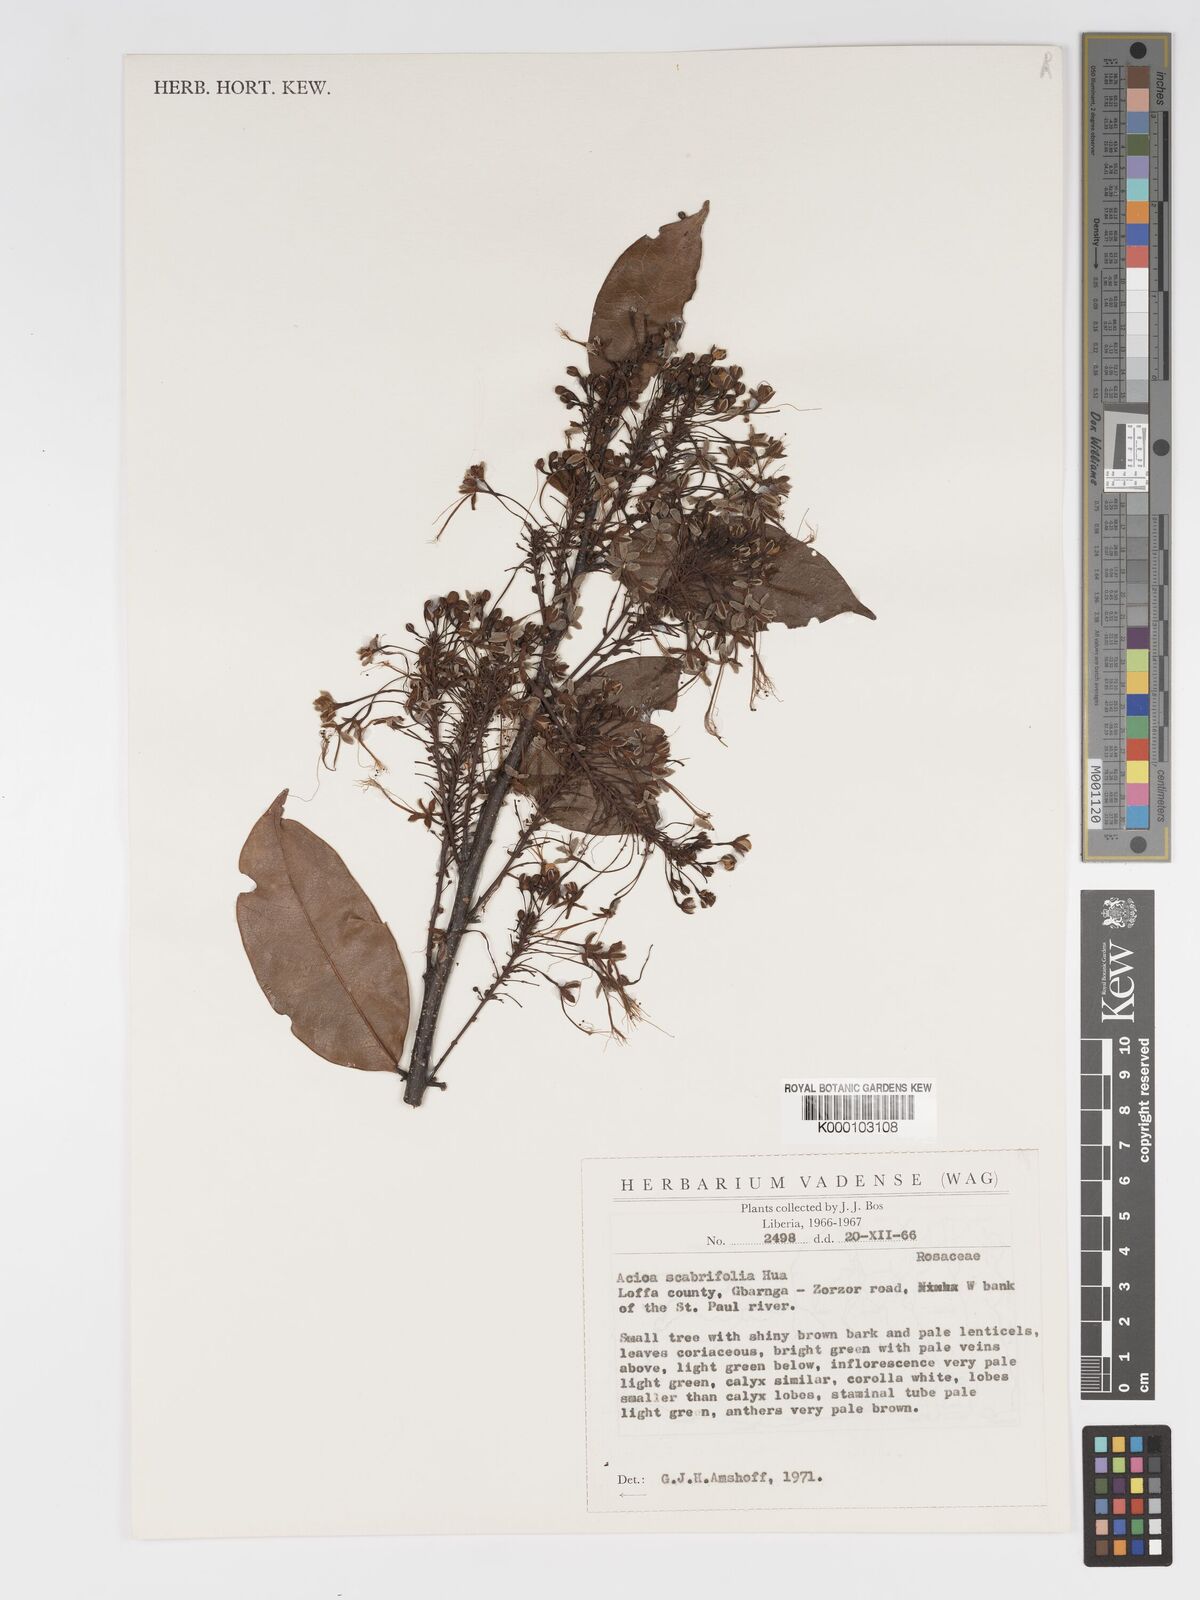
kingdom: Plantae
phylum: Tracheophyta
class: Magnoliopsida
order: Malpighiales
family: Chrysobalanaceae
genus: Dactyladenia
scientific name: Dactyladenia scabrifolia
